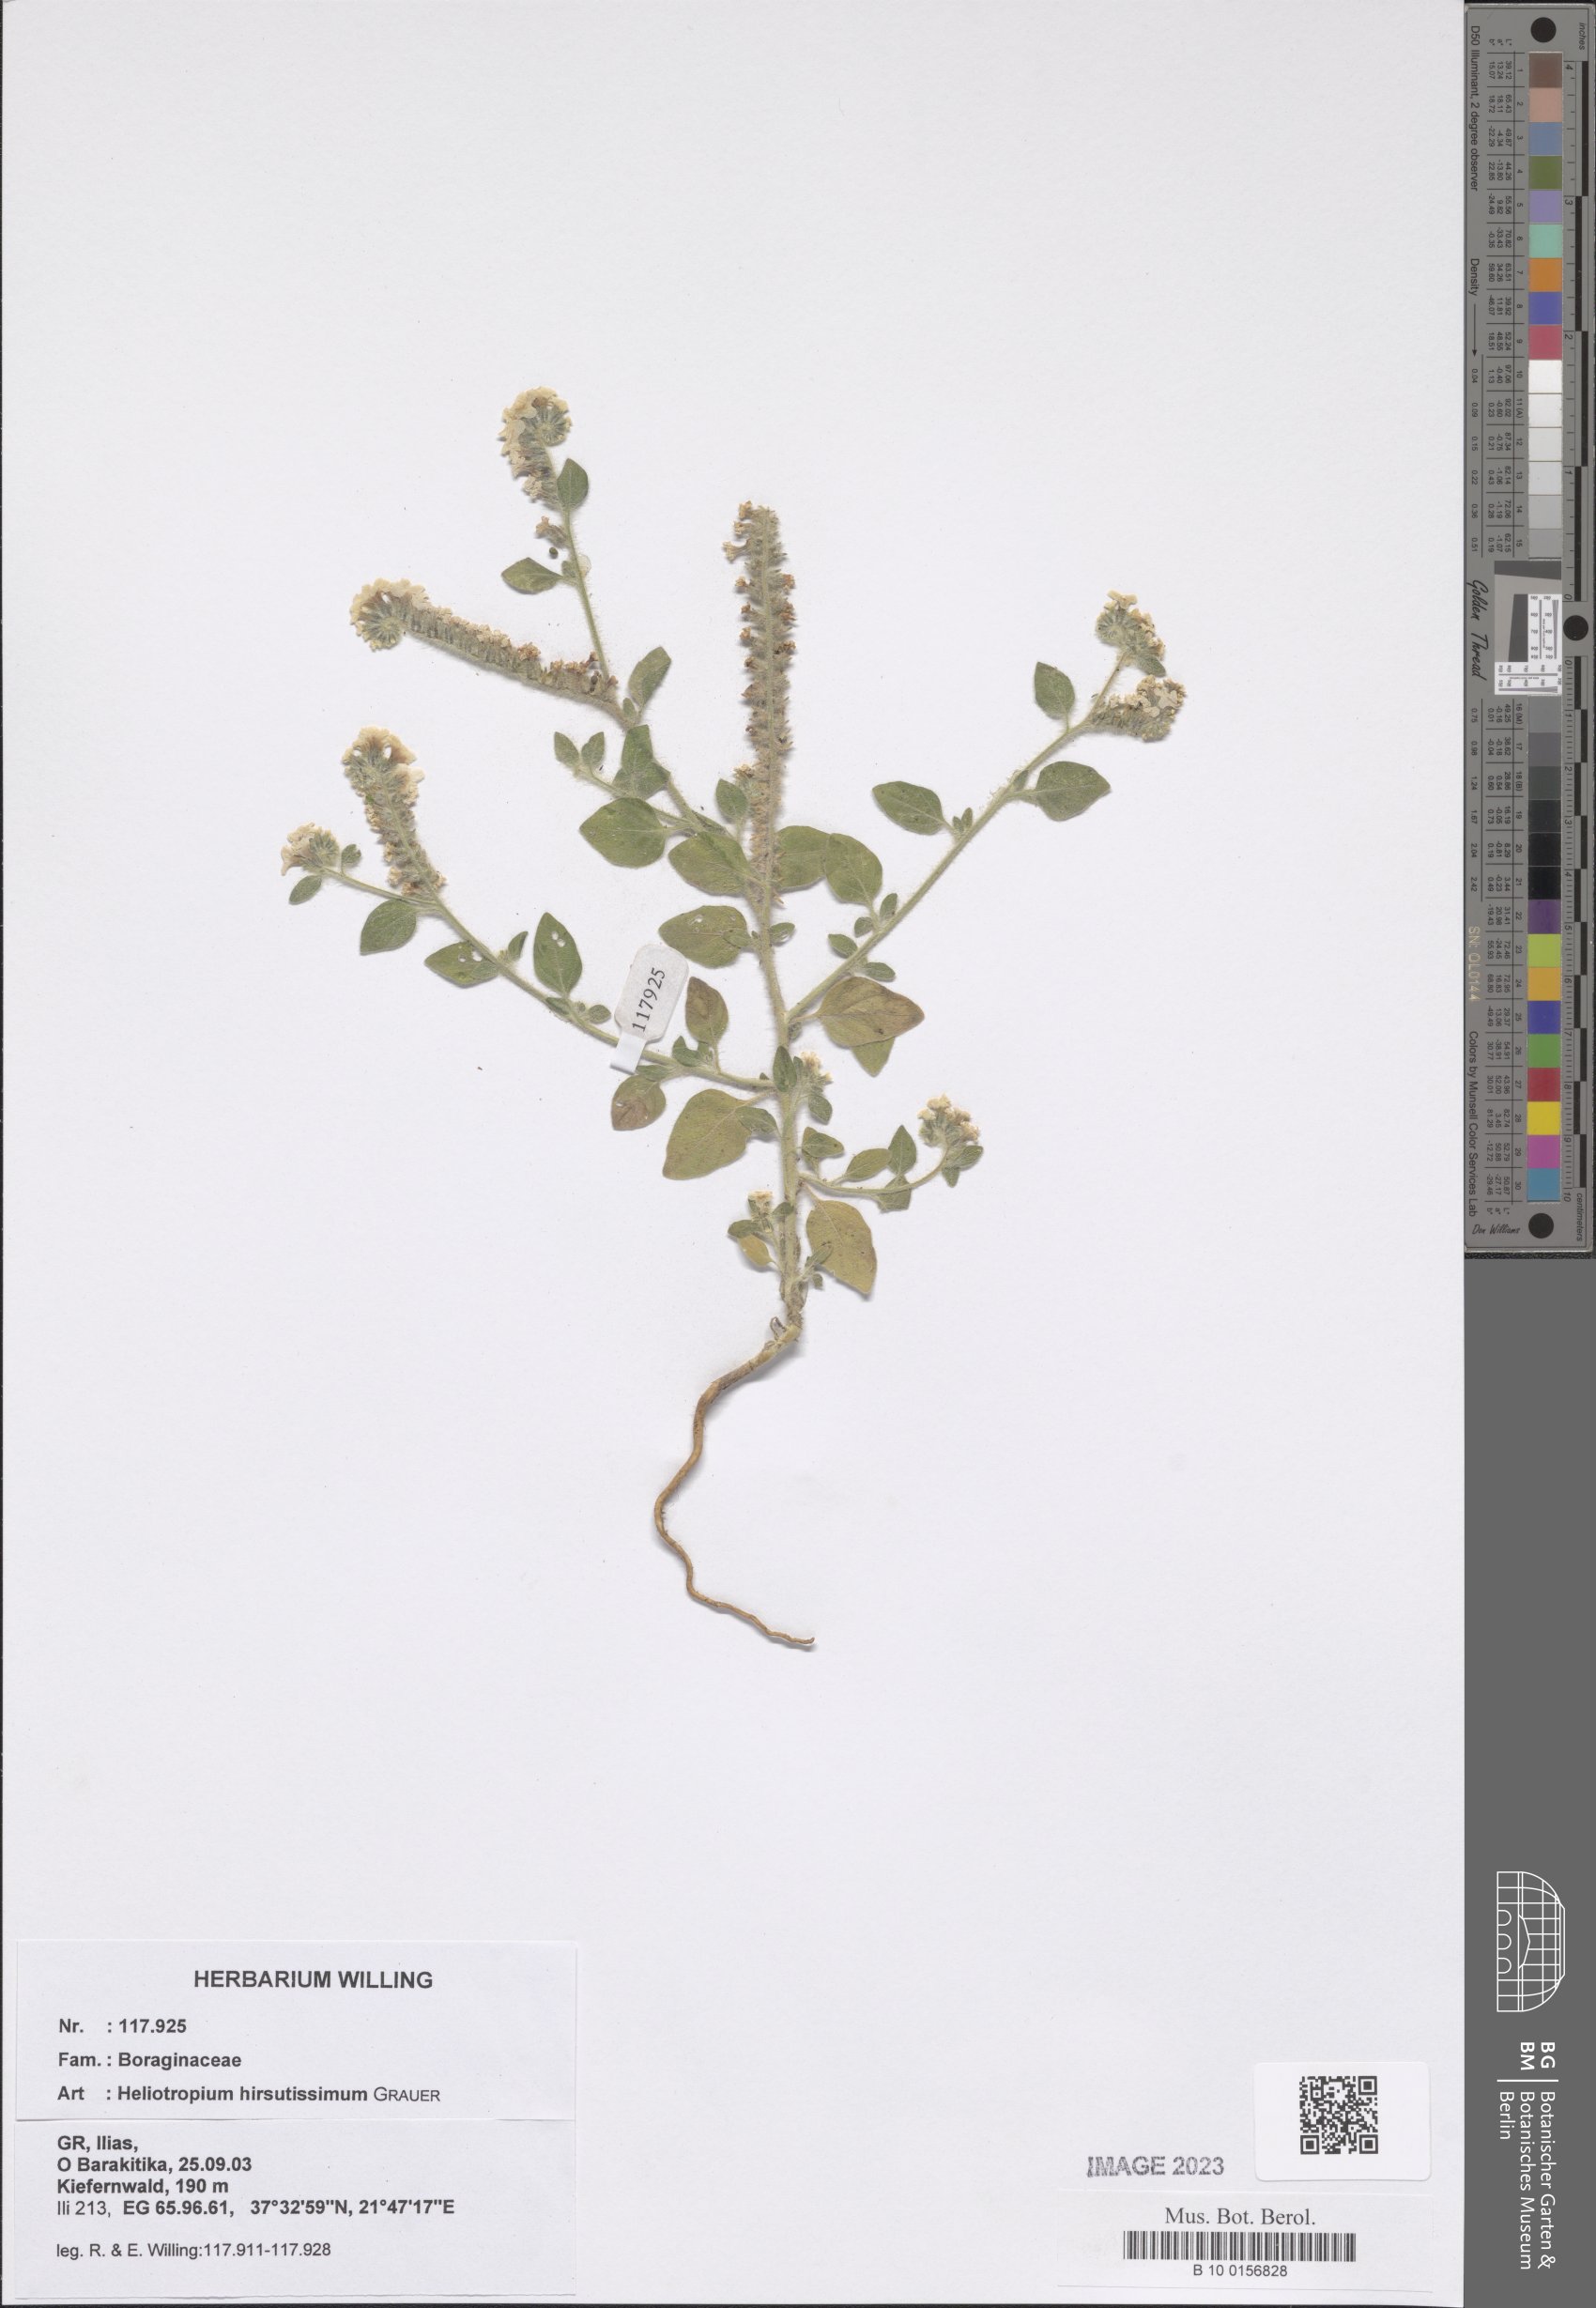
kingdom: Plantae
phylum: Tracheophyta
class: Magnoliopsida
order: Boraginales
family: Heliotropiaceae
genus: Heliotropium
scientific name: Heliotropium hirsutissimum
